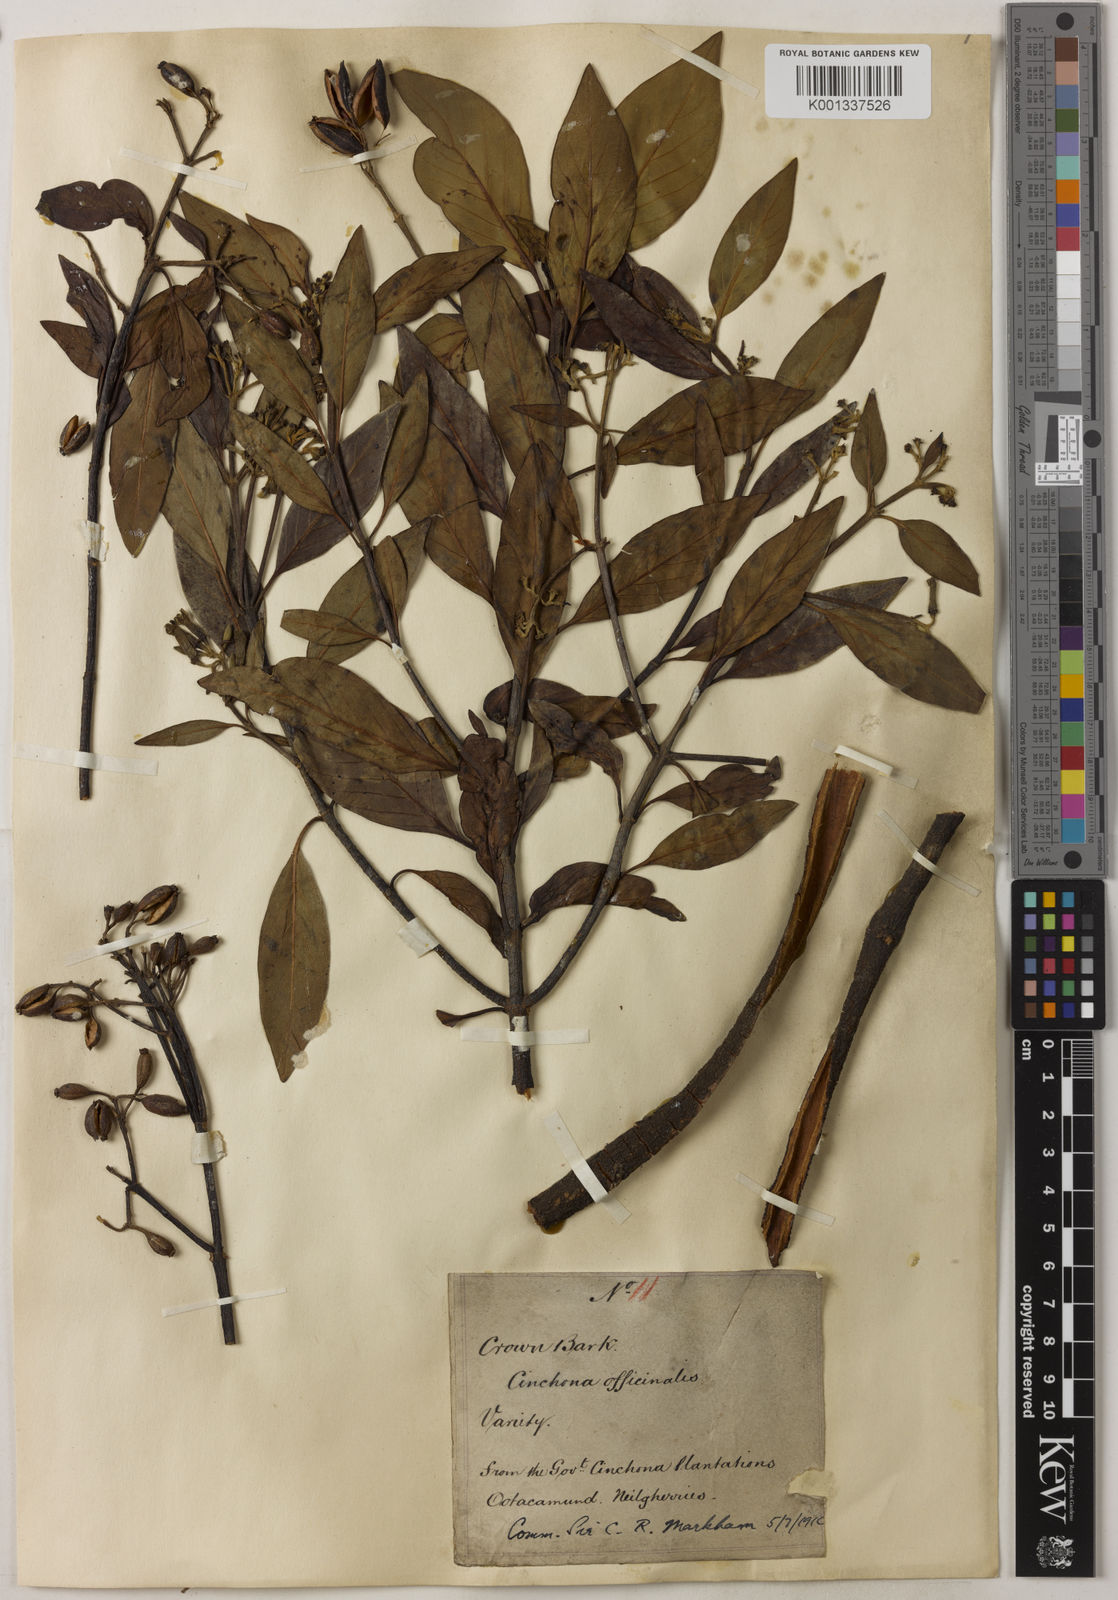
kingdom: Plantae
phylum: Tracheophyta
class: Magnoliopsida
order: Gentianales
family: Rubiaceae
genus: Cinchona
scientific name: Cinchona officinalis
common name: Lojabark
